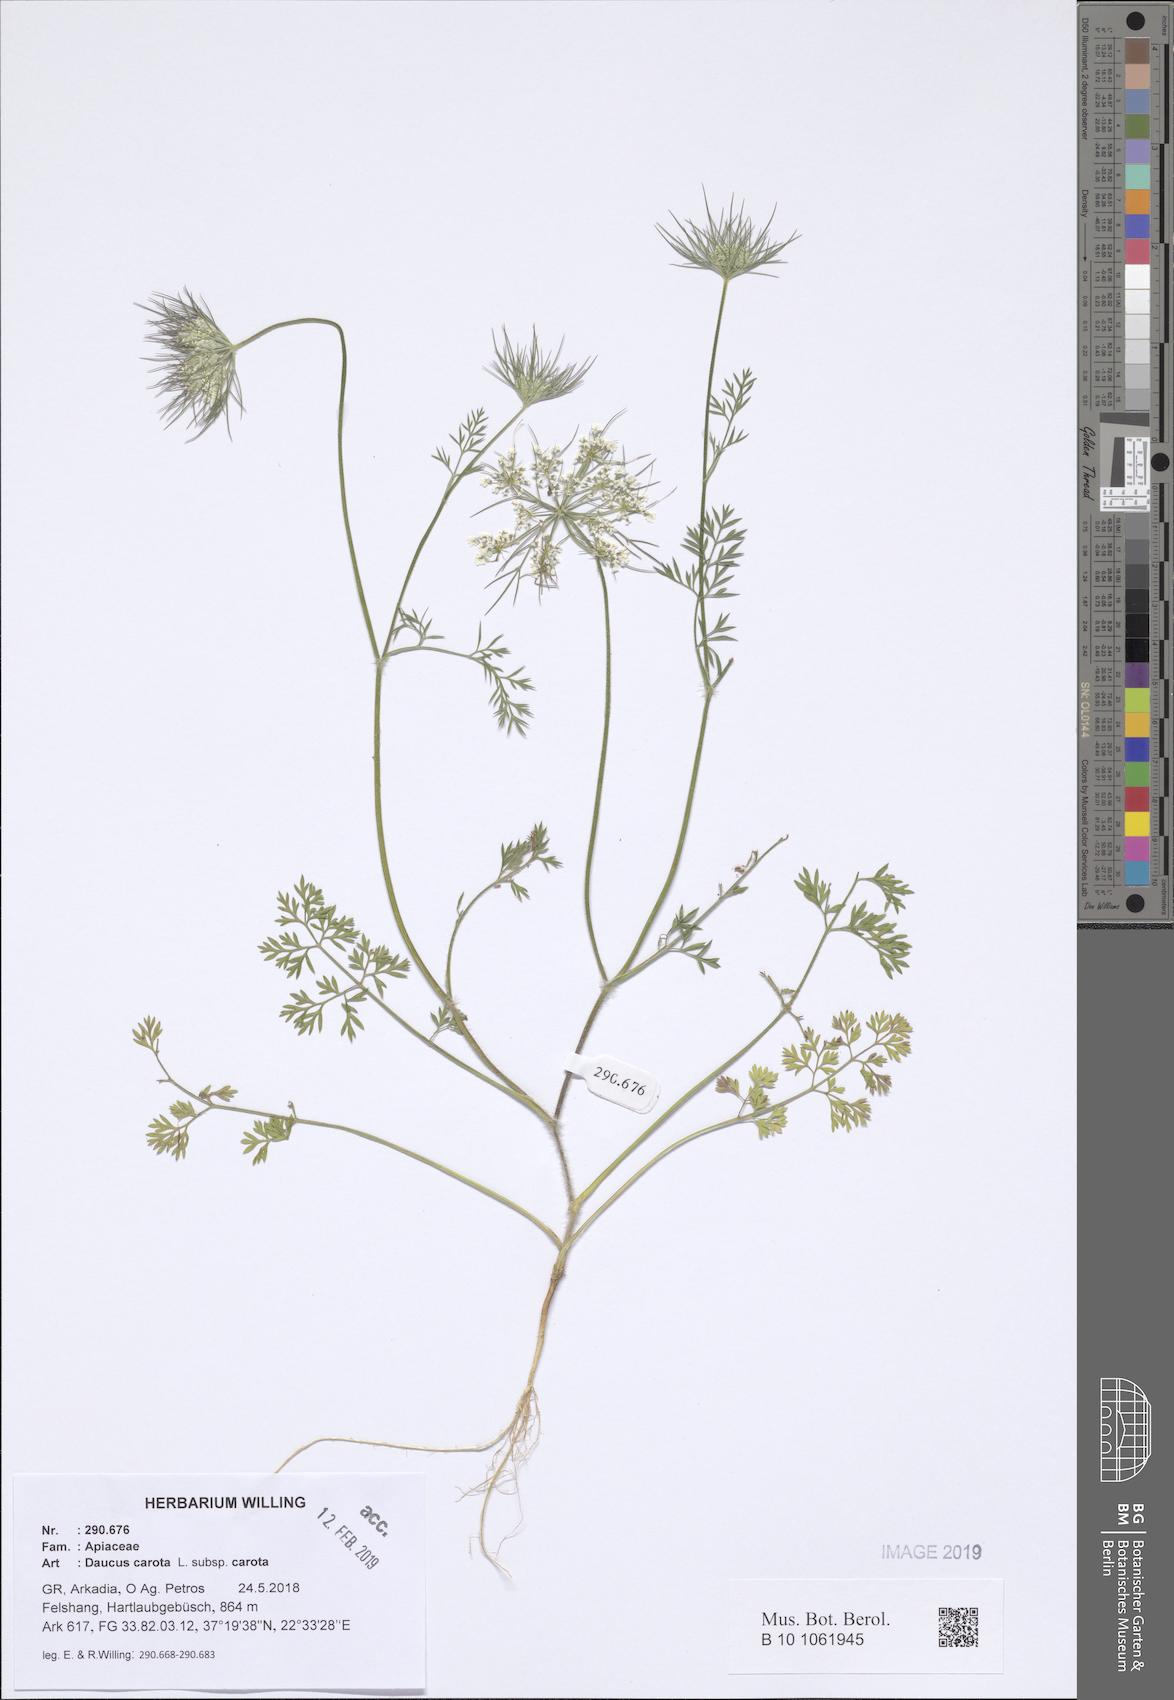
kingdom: Plantae
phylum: Tracheophyta
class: Magnoliopsida
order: Apiales
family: Apiaceae
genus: Daucus
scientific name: Daucus carota
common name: Wild carrot
